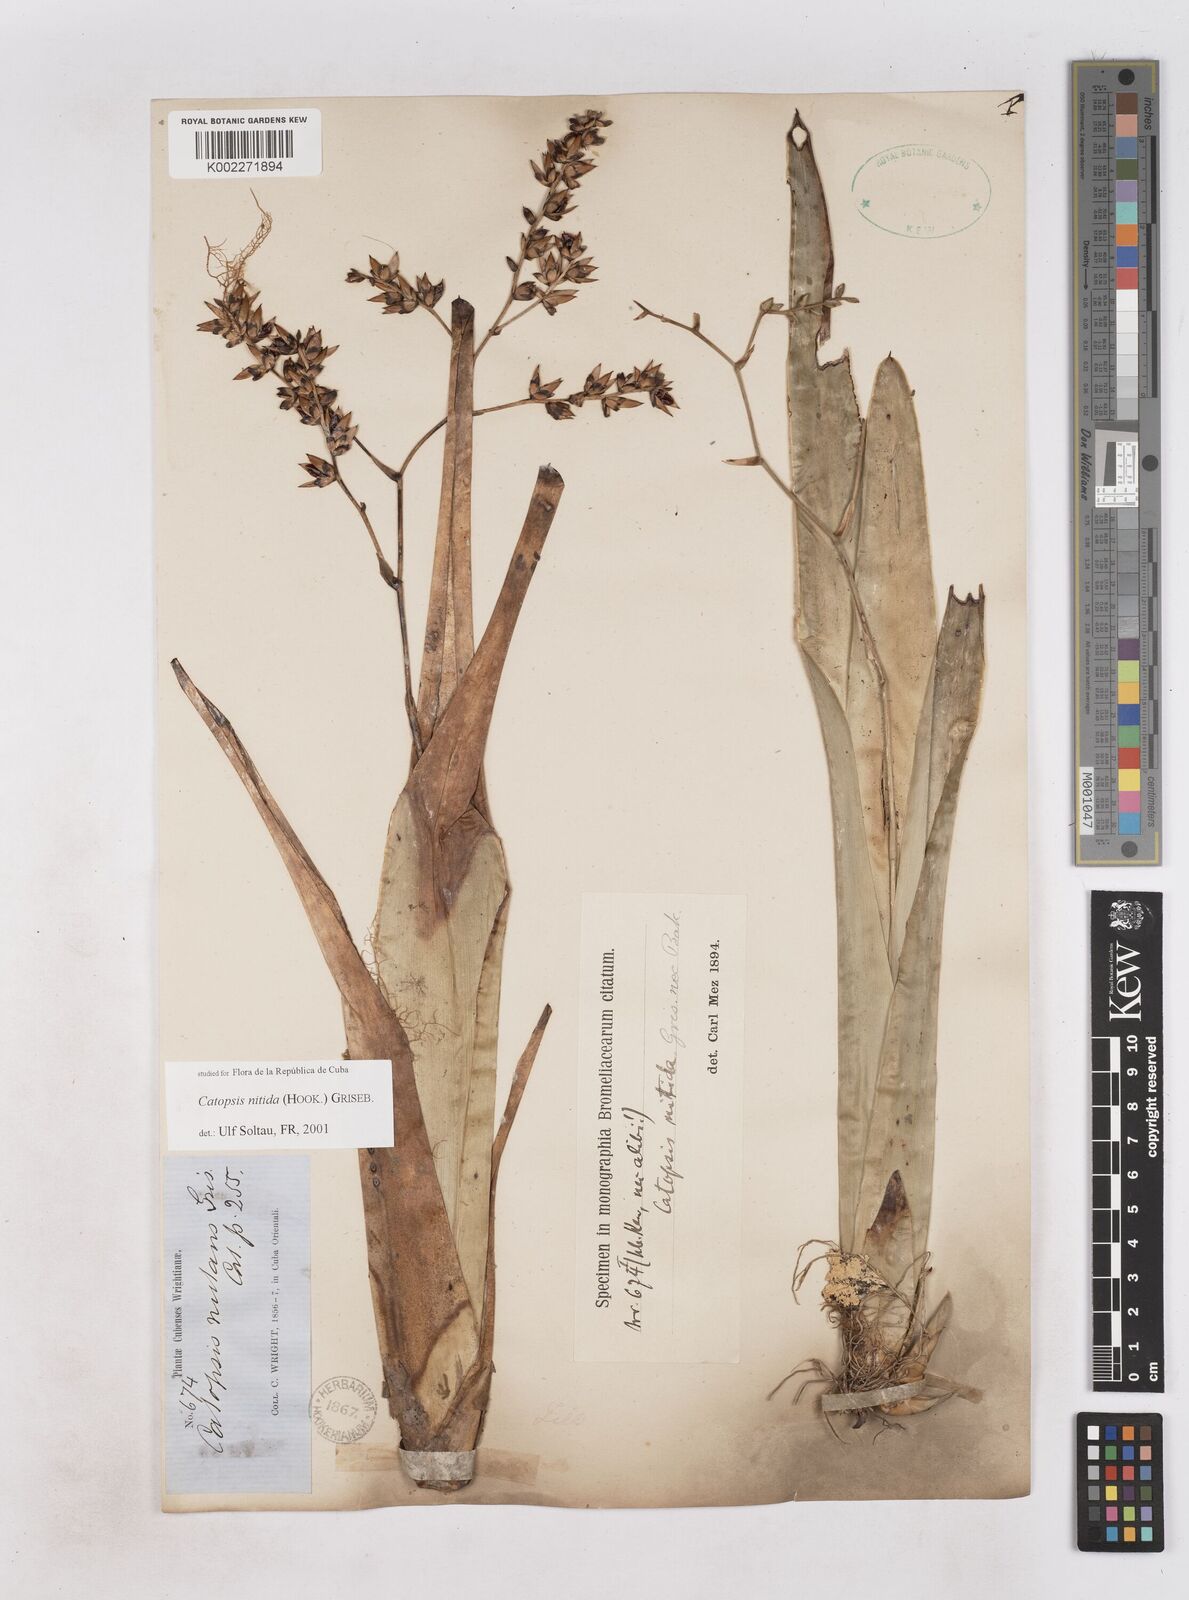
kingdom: Plantae
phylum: Tracheophyta
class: Liliopsida
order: Poales
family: Bromeliaceae
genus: Catopsis
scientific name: Catopsis nitida
